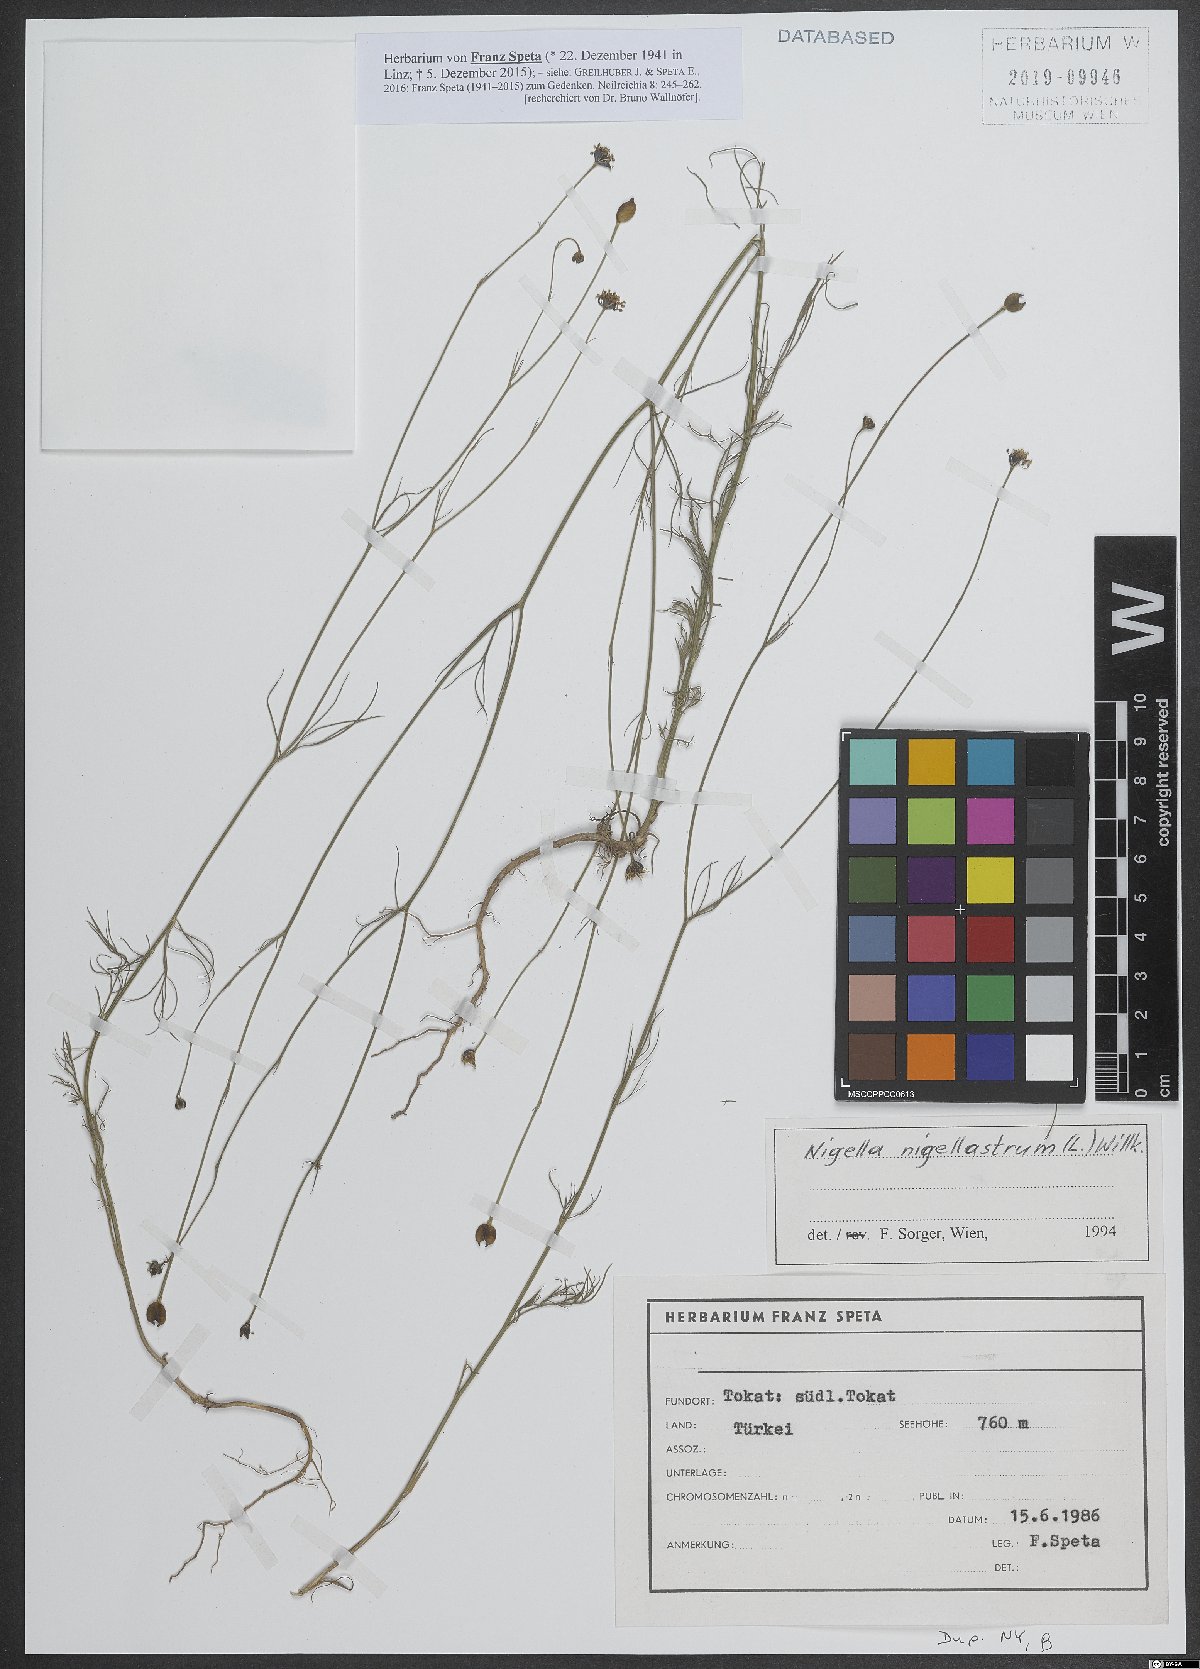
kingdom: Plantae
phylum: Tracheophyta
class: Magnoliopsida
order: Ranunculales
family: Ranunculaceae
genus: Garidella
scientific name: Garidella nigellastrum
